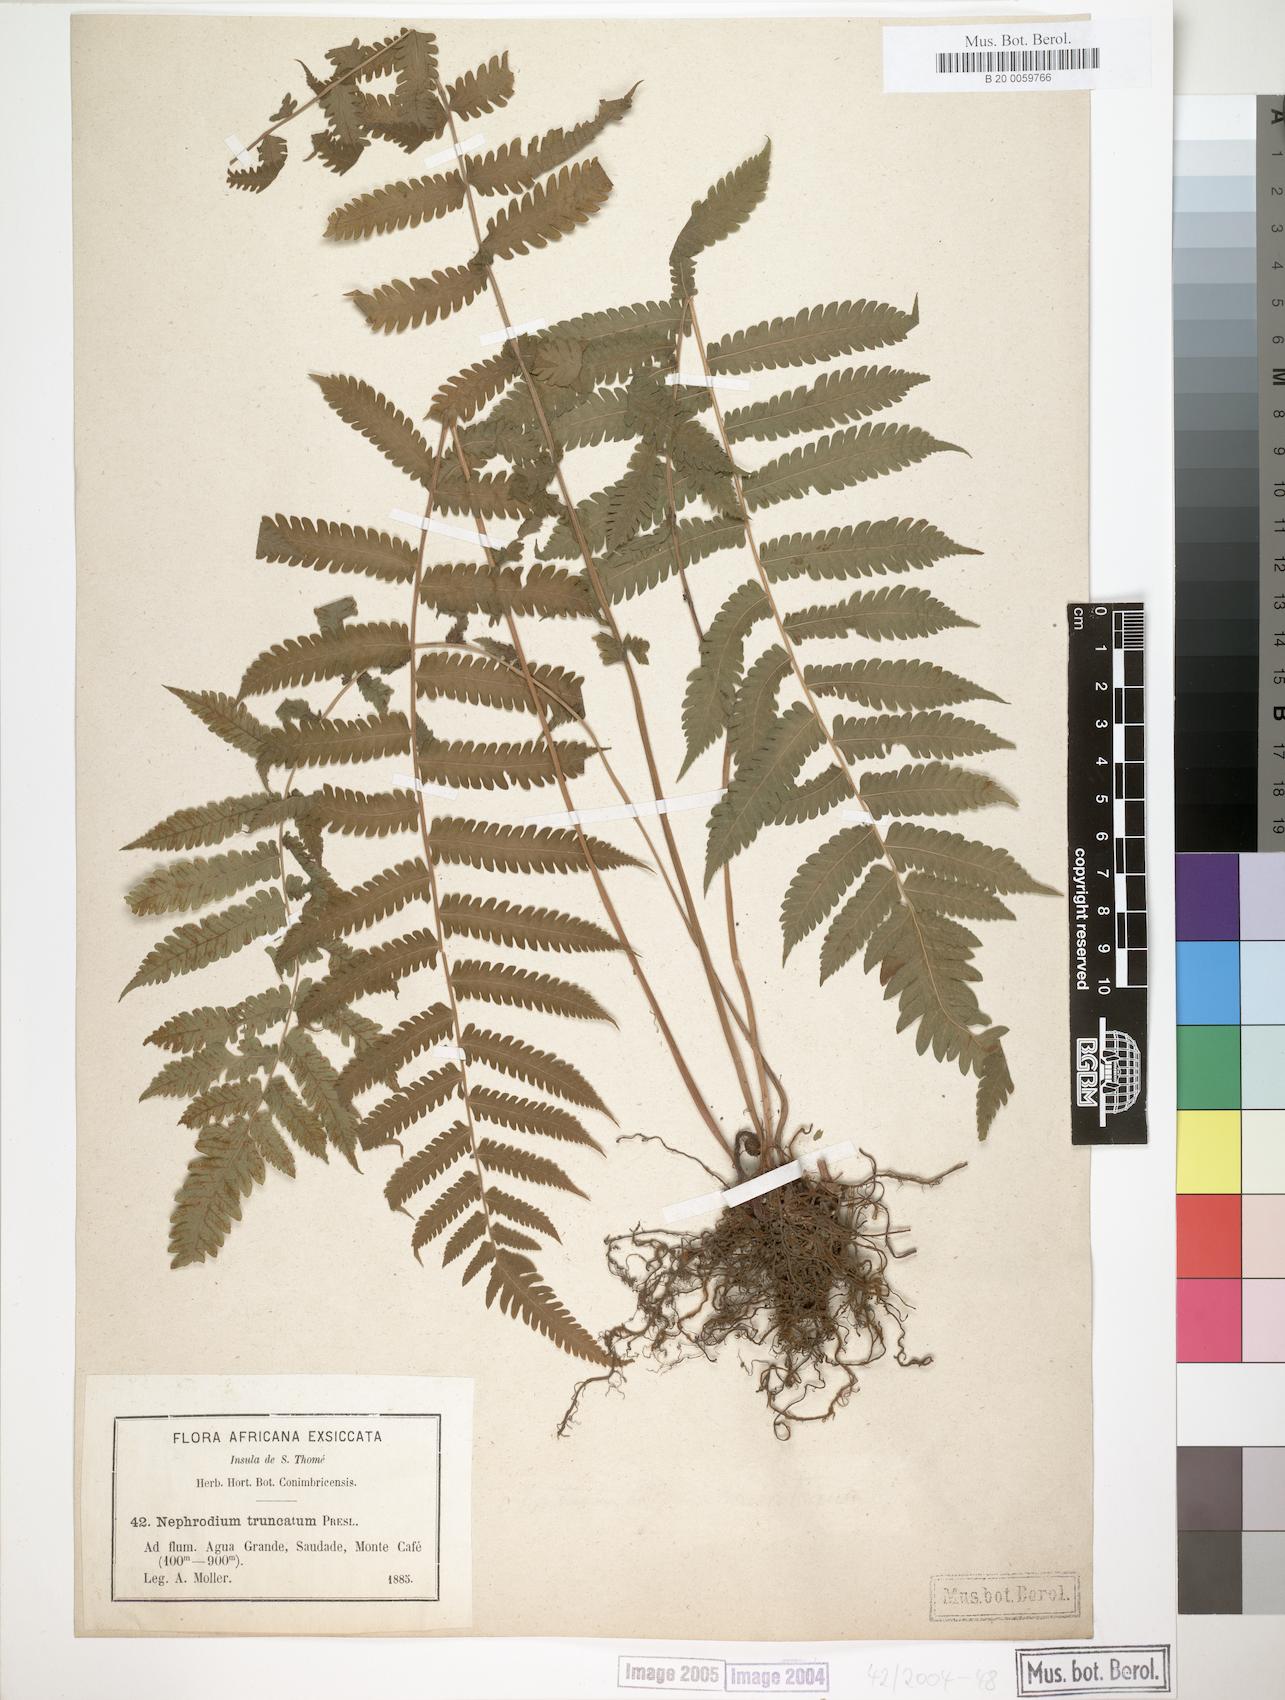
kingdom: Plantae
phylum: Tracheophyta
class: Polypodiopsida
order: Polypodiales
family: Thelypteridaceae
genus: Christella
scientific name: Christella dentata
